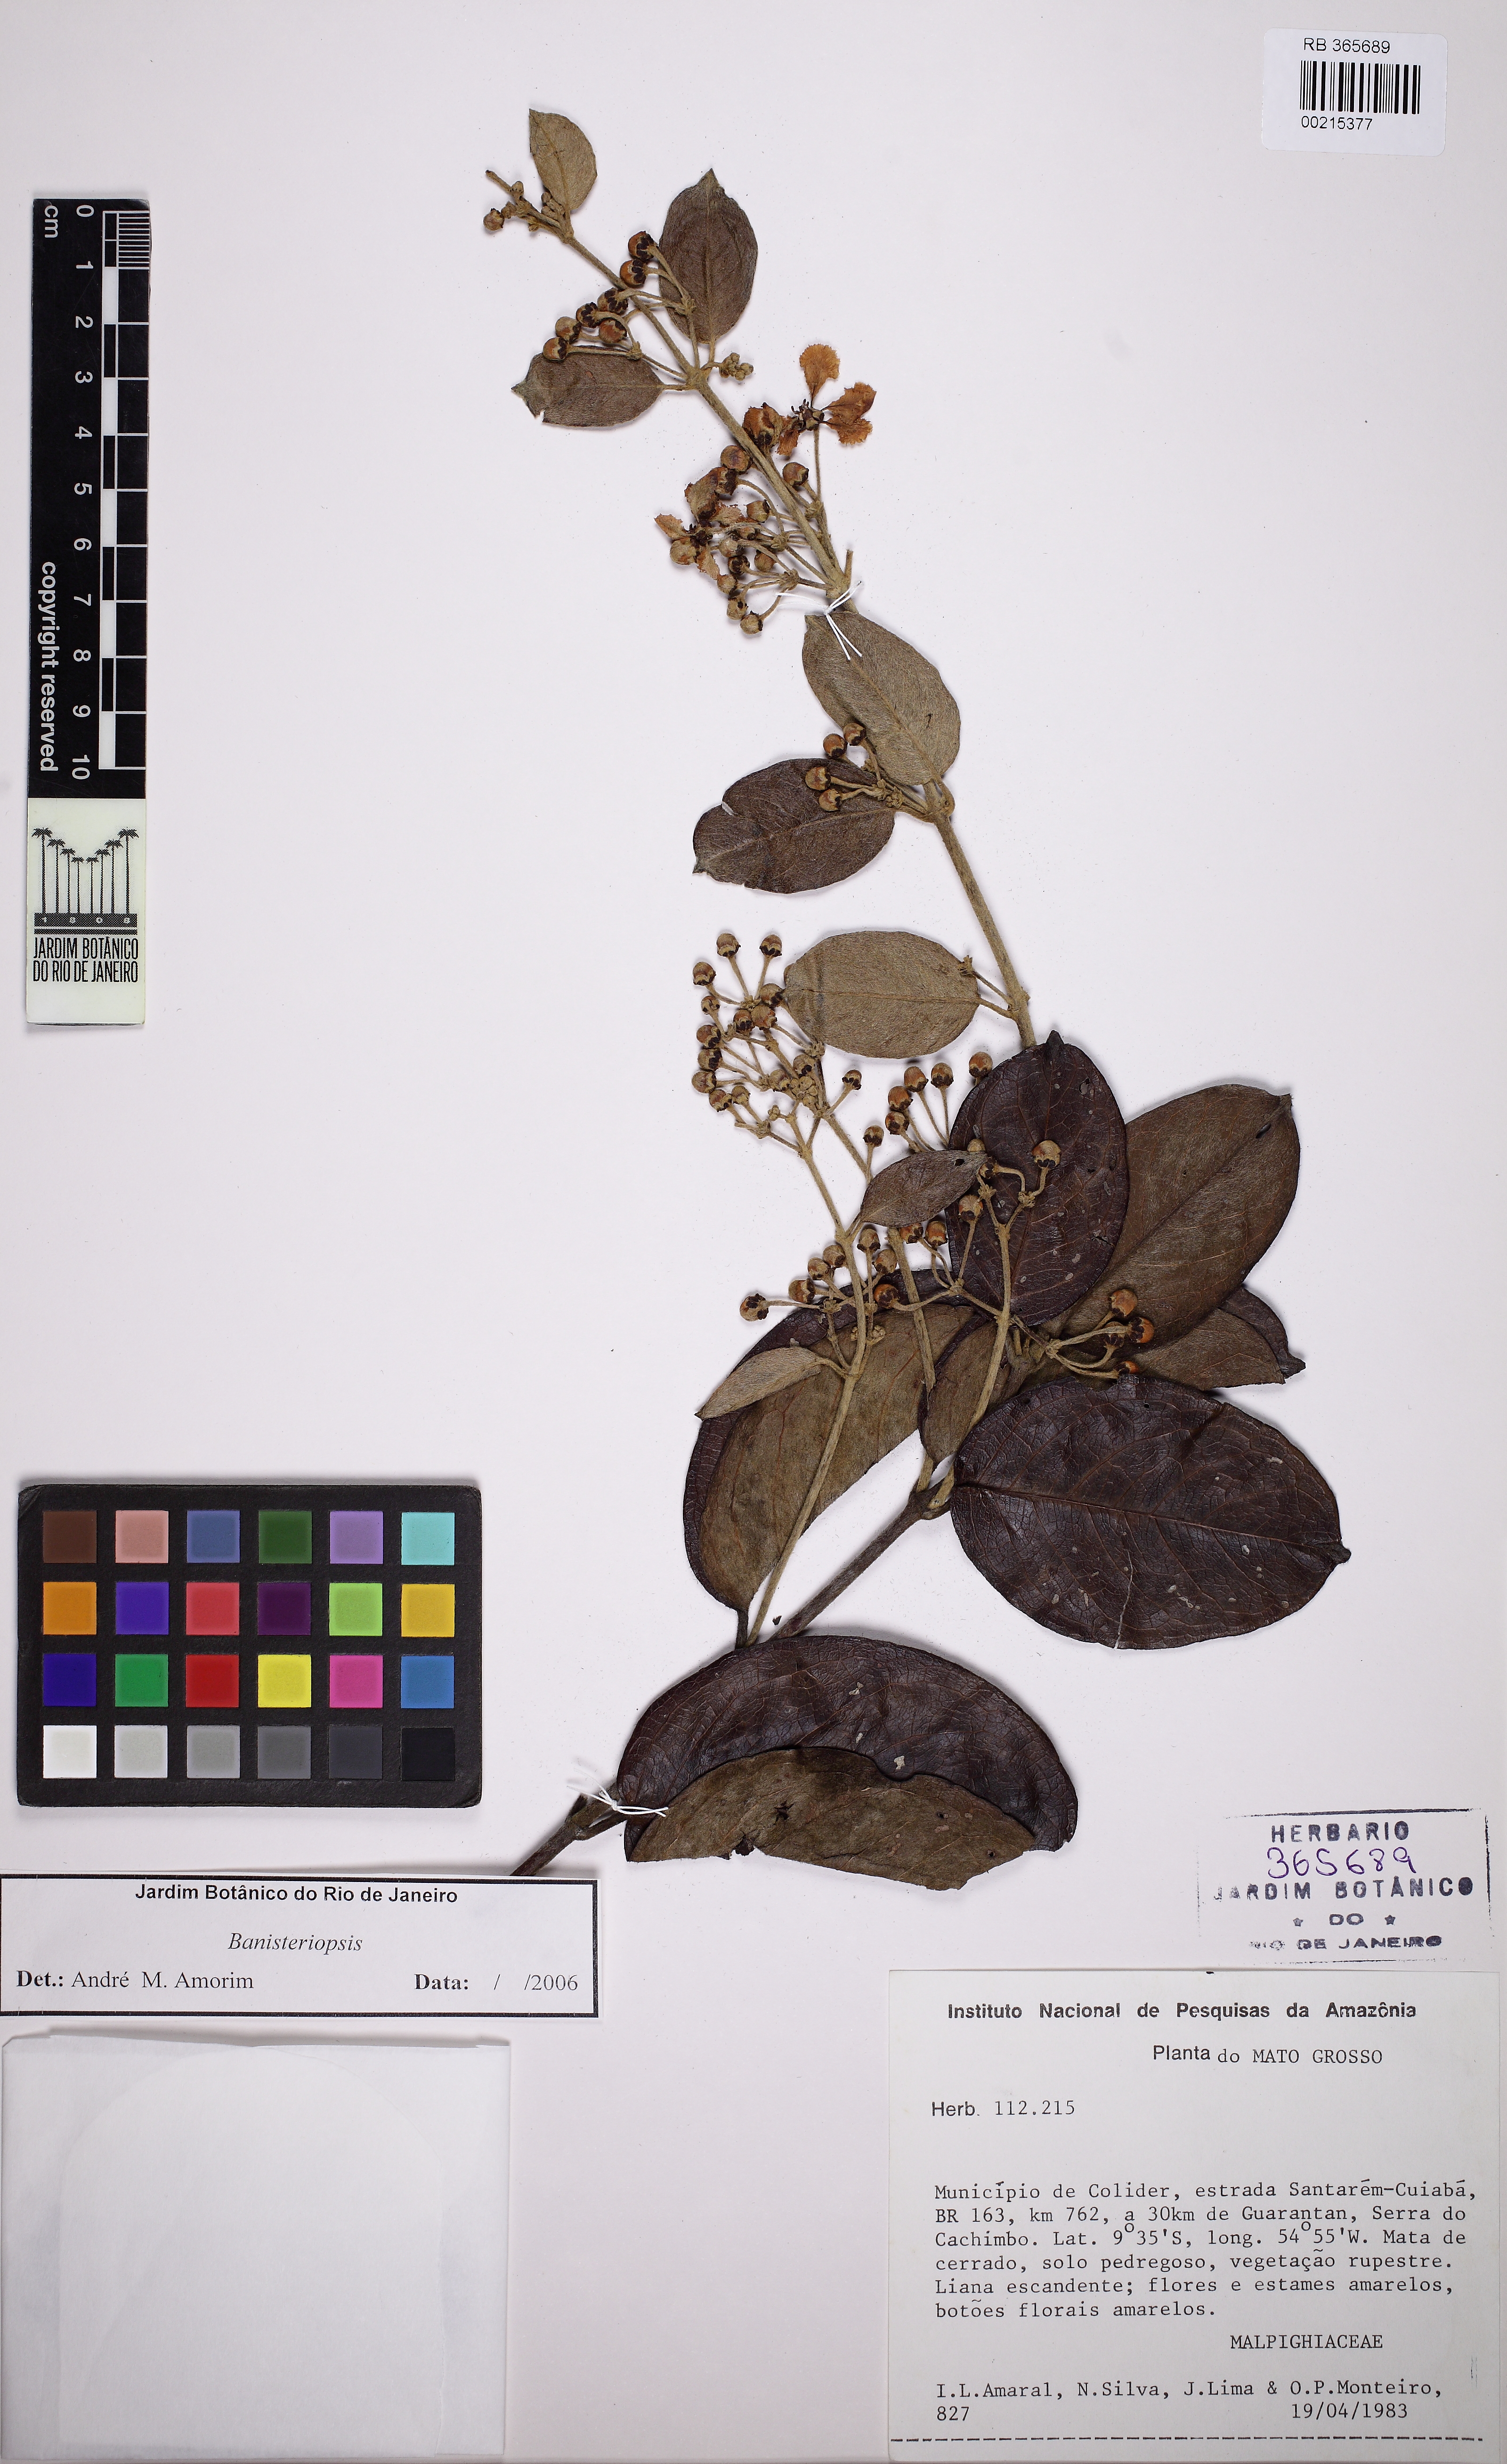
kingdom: Plantae
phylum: Tracheophyta
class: Magnoliopsida
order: Malpighiales
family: Malpighiaceae
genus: Banisteriopsis
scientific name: Banisteriopsis
